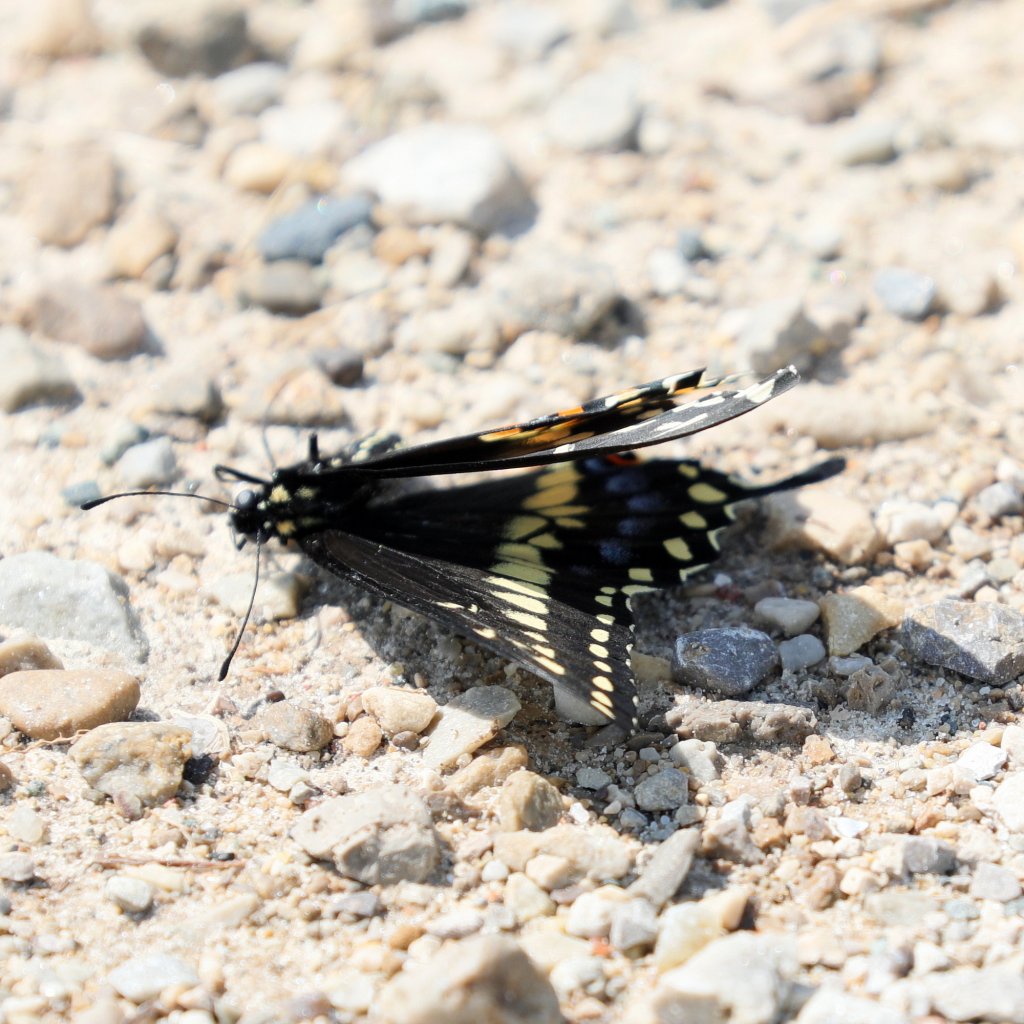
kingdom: Animalia
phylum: Arthropoda
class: Insecta
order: Lepidoptera
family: Papilionidae
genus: Papilio
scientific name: Papilio polyxenes
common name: Black Swallowtail
